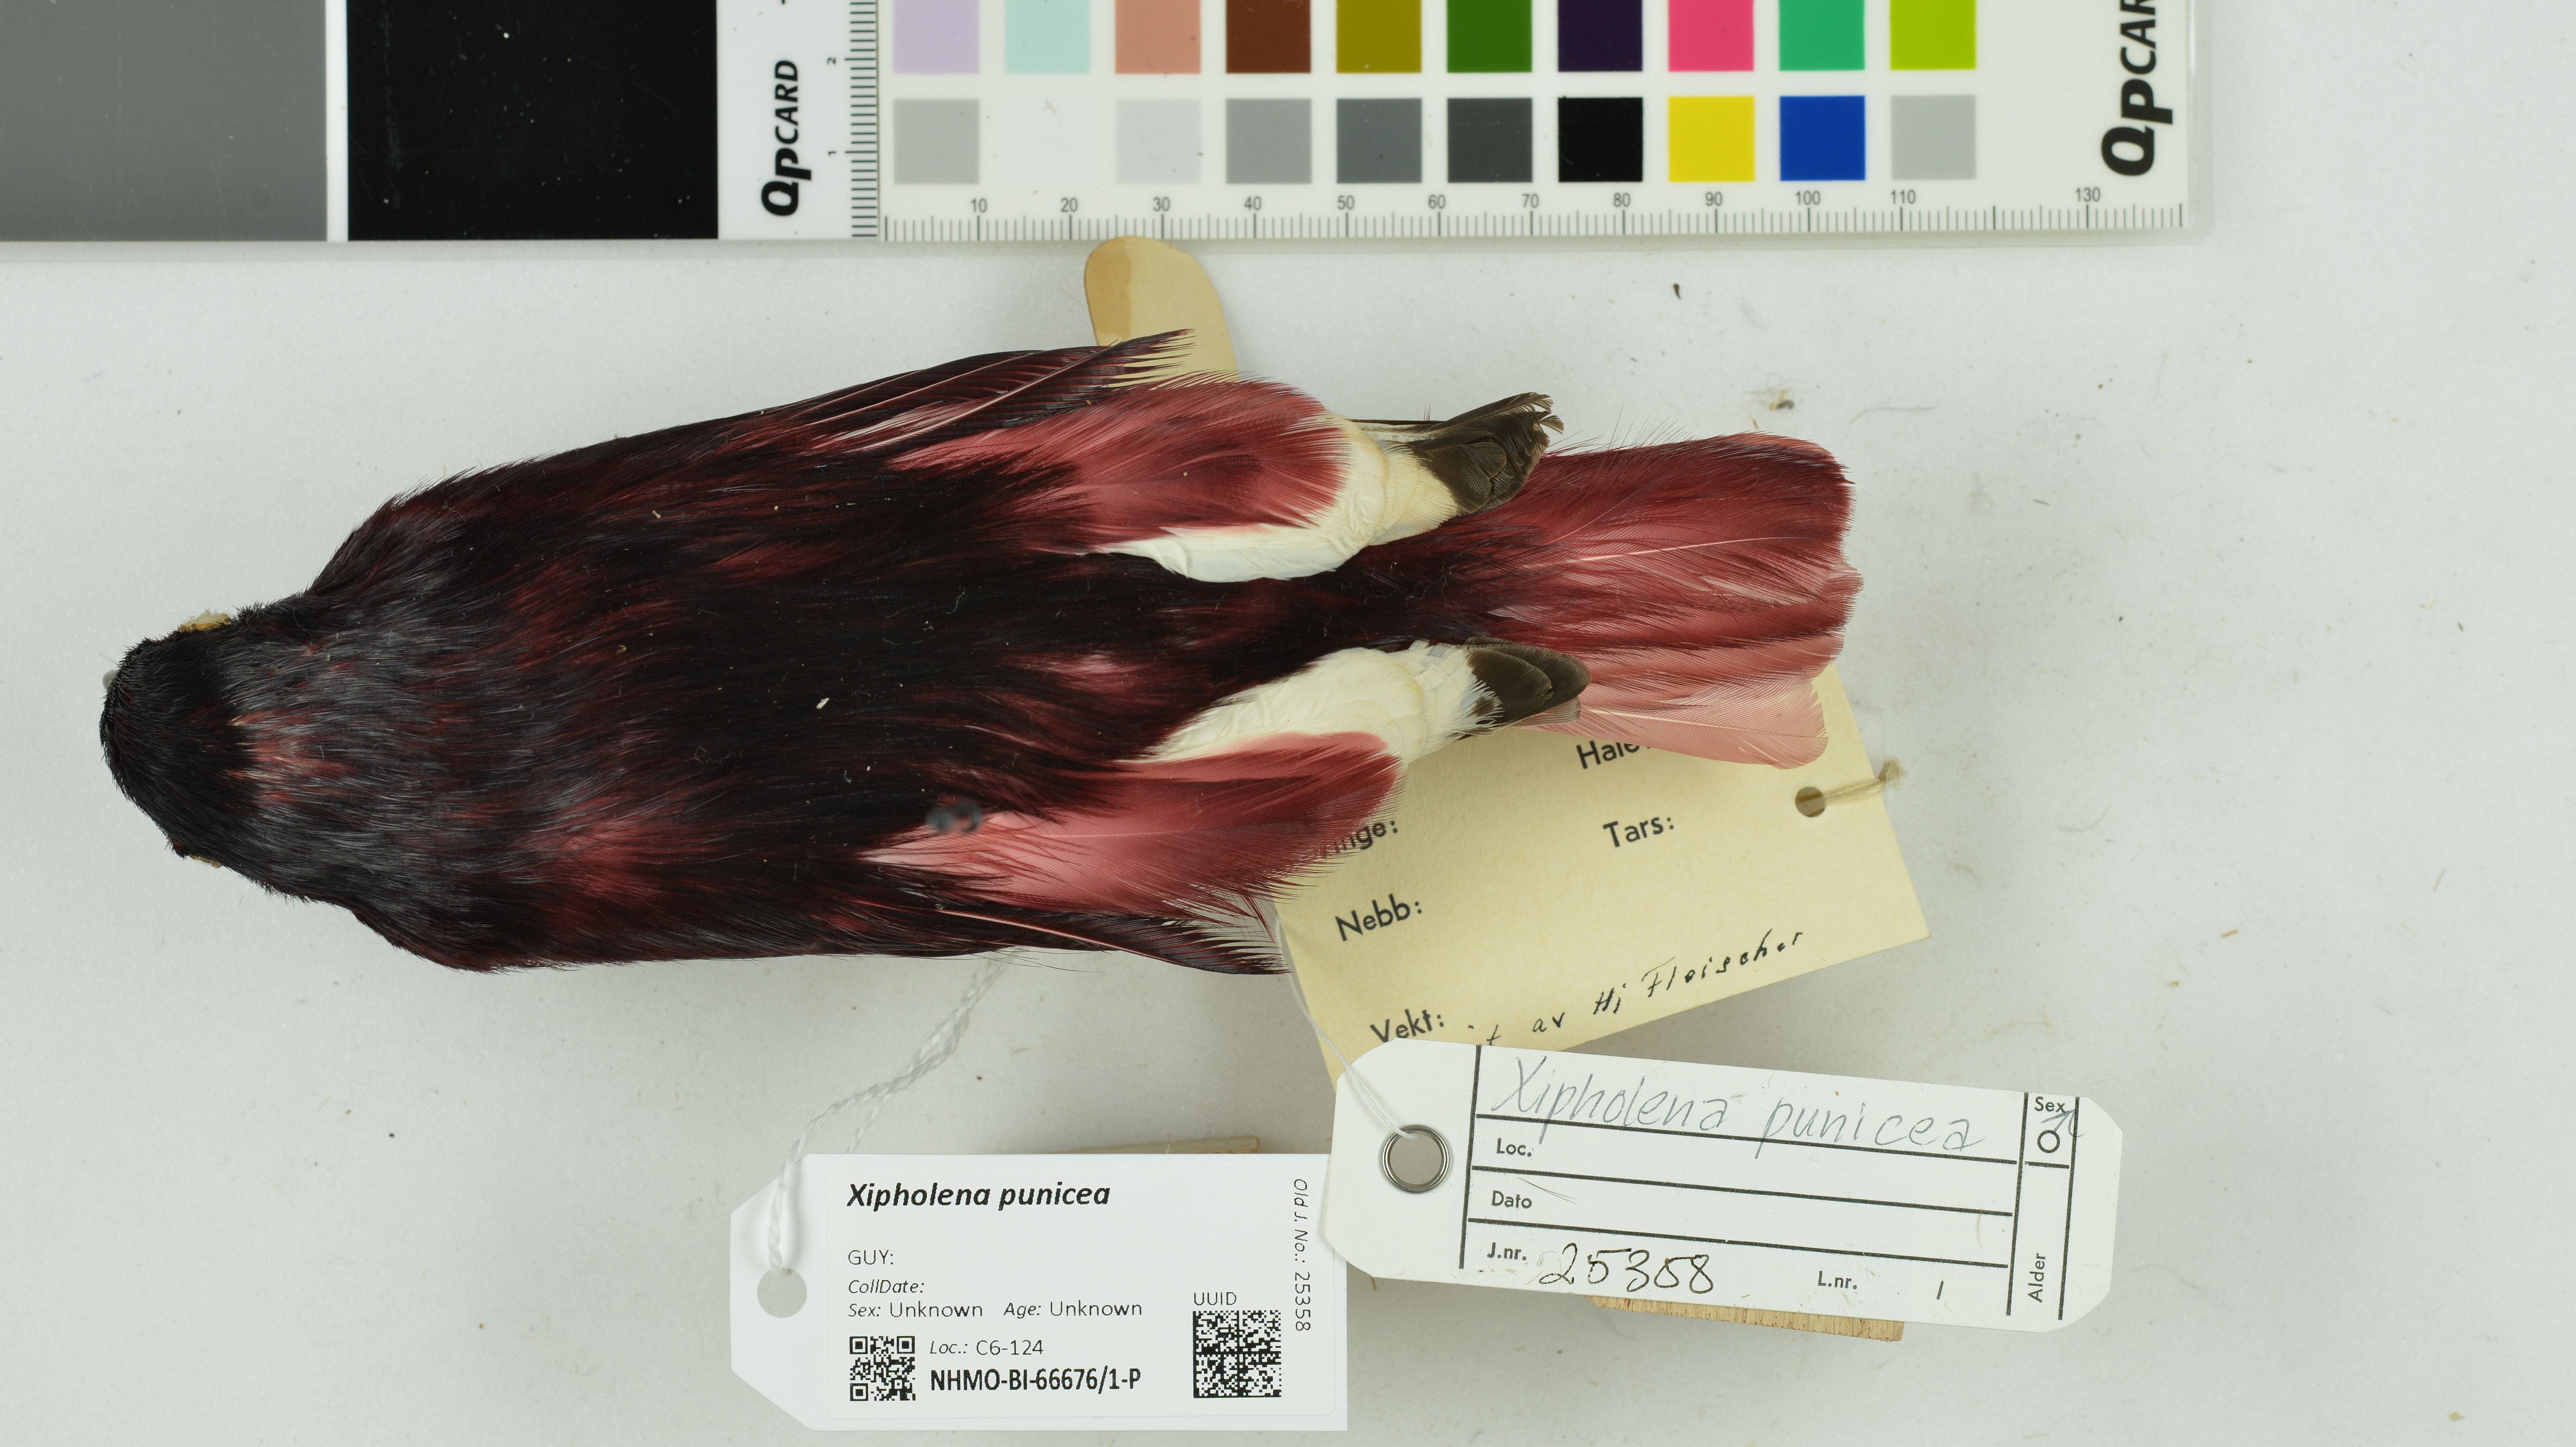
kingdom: Animalia
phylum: Chordata
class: Aves
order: Passeriformes
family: Cotingidae
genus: Xipholena
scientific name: Xipholena punicea
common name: Pompadour cotinga
